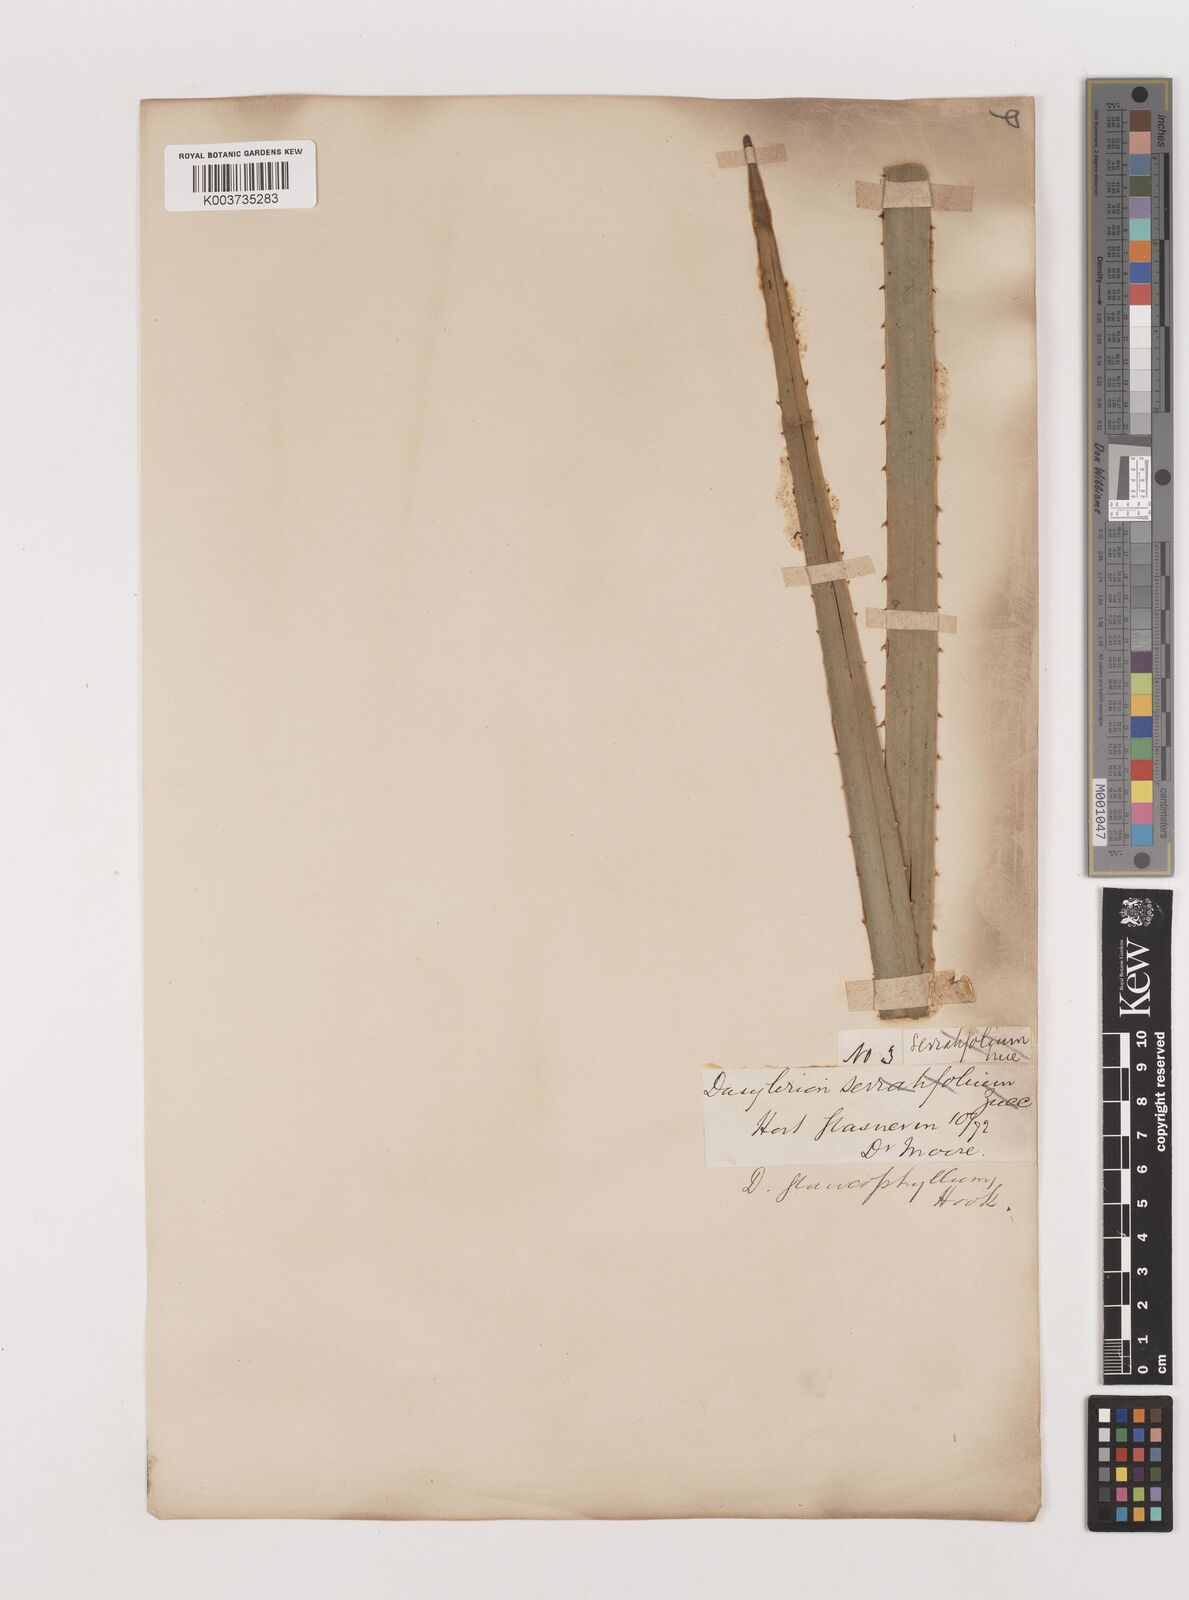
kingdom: Plantae
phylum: Tracheophyta
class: Liliopsida
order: Asparagales
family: Asparagaceae
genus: Dasylirion
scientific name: Dasylirion glaucophyllum
